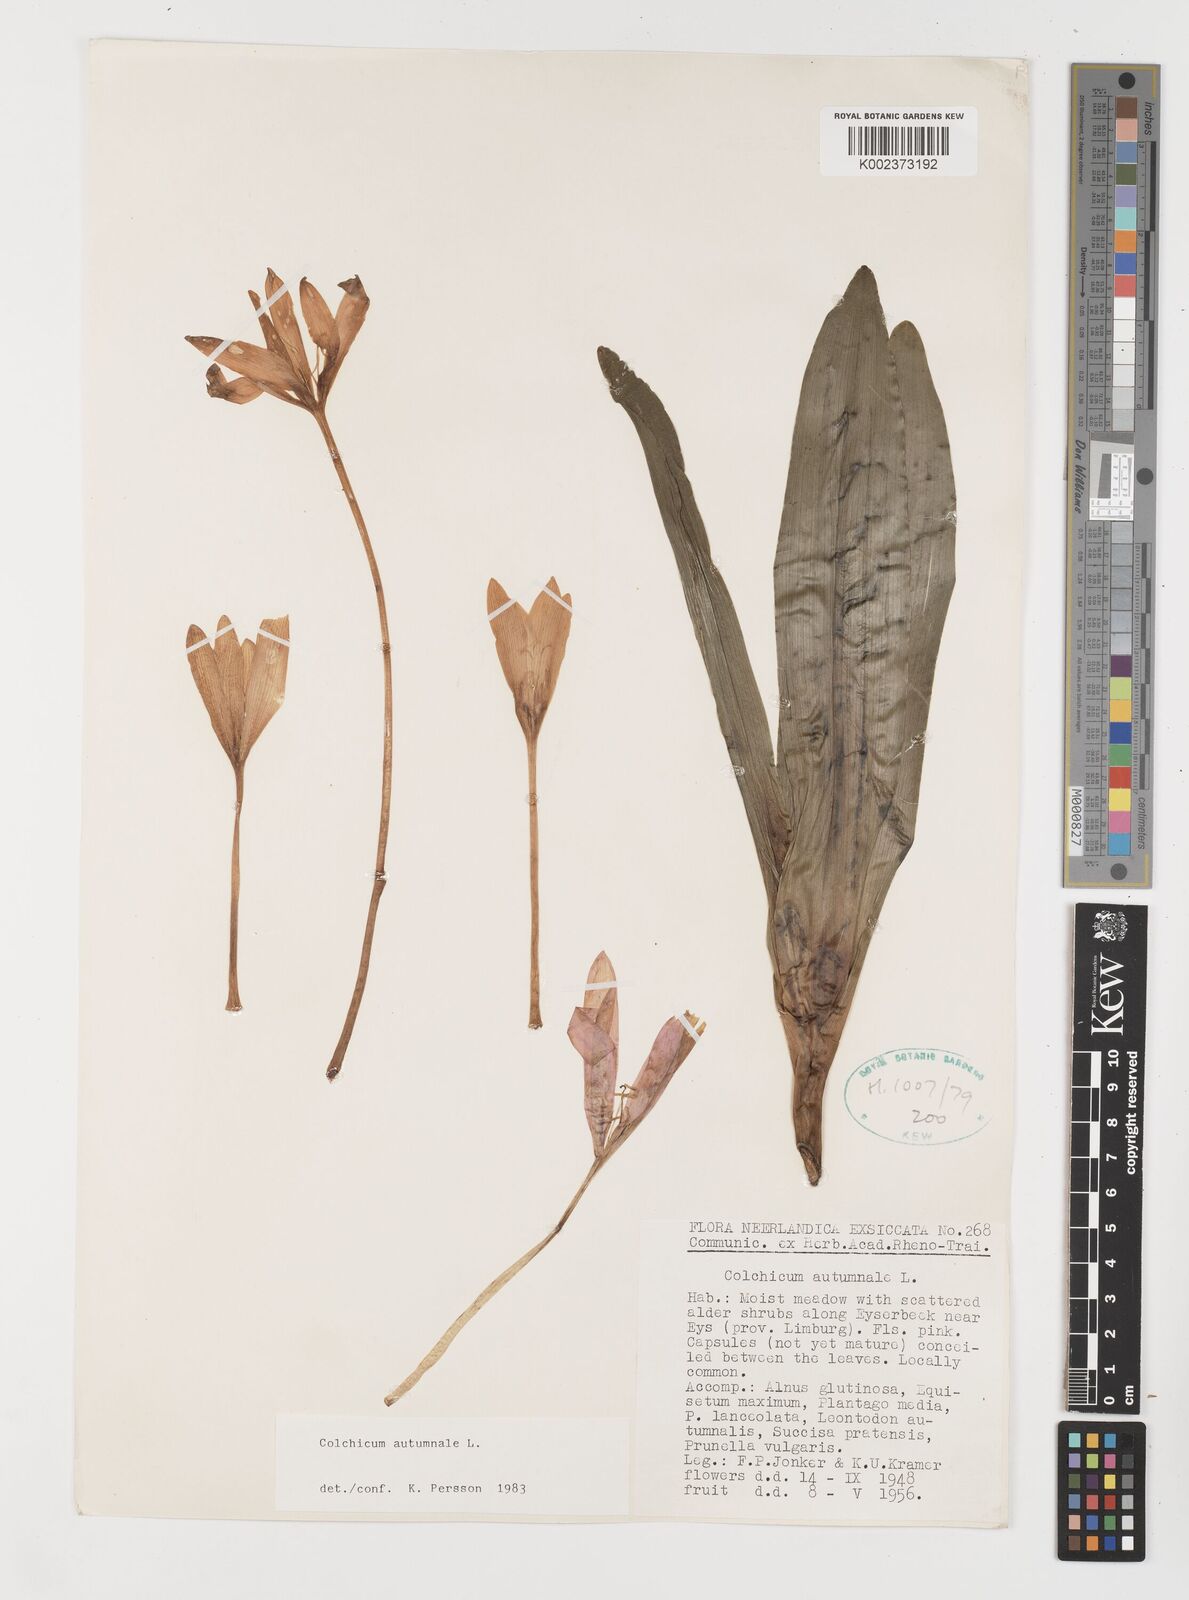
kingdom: Plantae
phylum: Tracheophyta
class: Liliopsida
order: Liliales
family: Colchicaceae
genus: Colchicum
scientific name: Colchicum autumnale
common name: Autumn crocus
